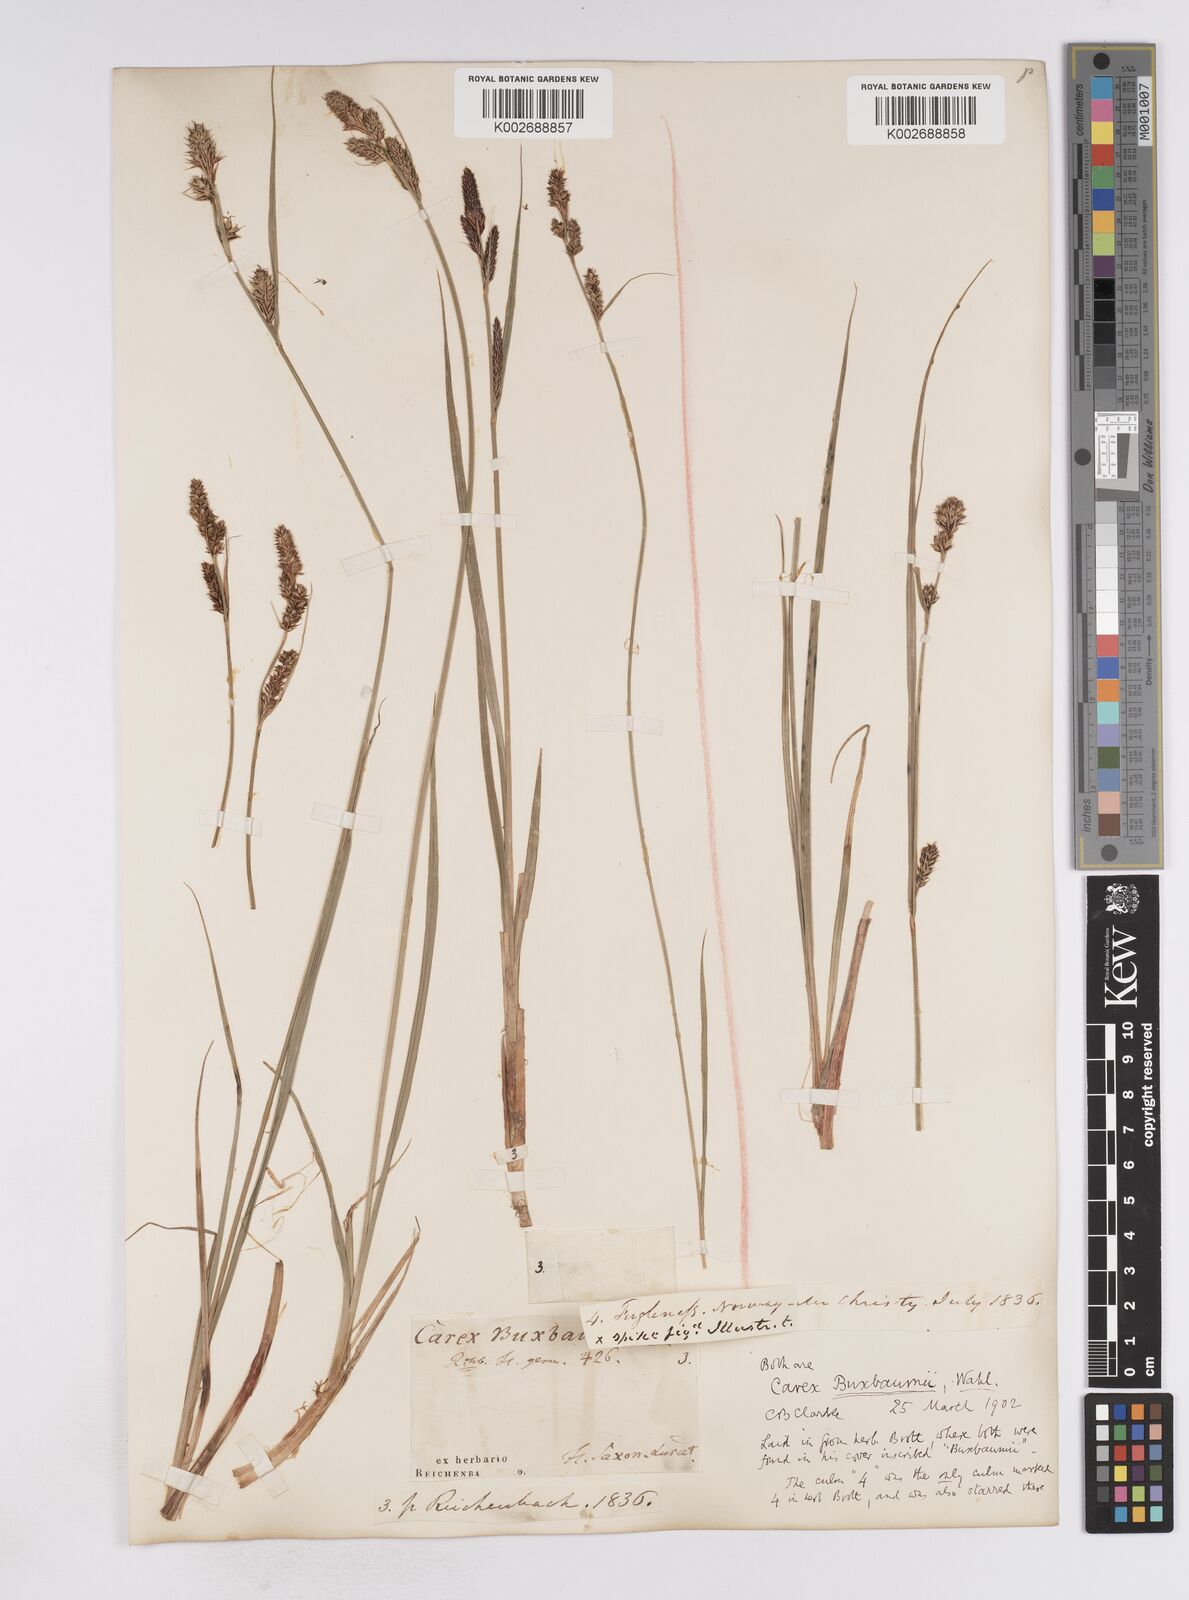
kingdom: Plantae
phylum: Tracheophyta
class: Liliopsida
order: Poales
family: Cyperaceae
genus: Carex
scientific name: Carex buxbaumii
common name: Club sedge
